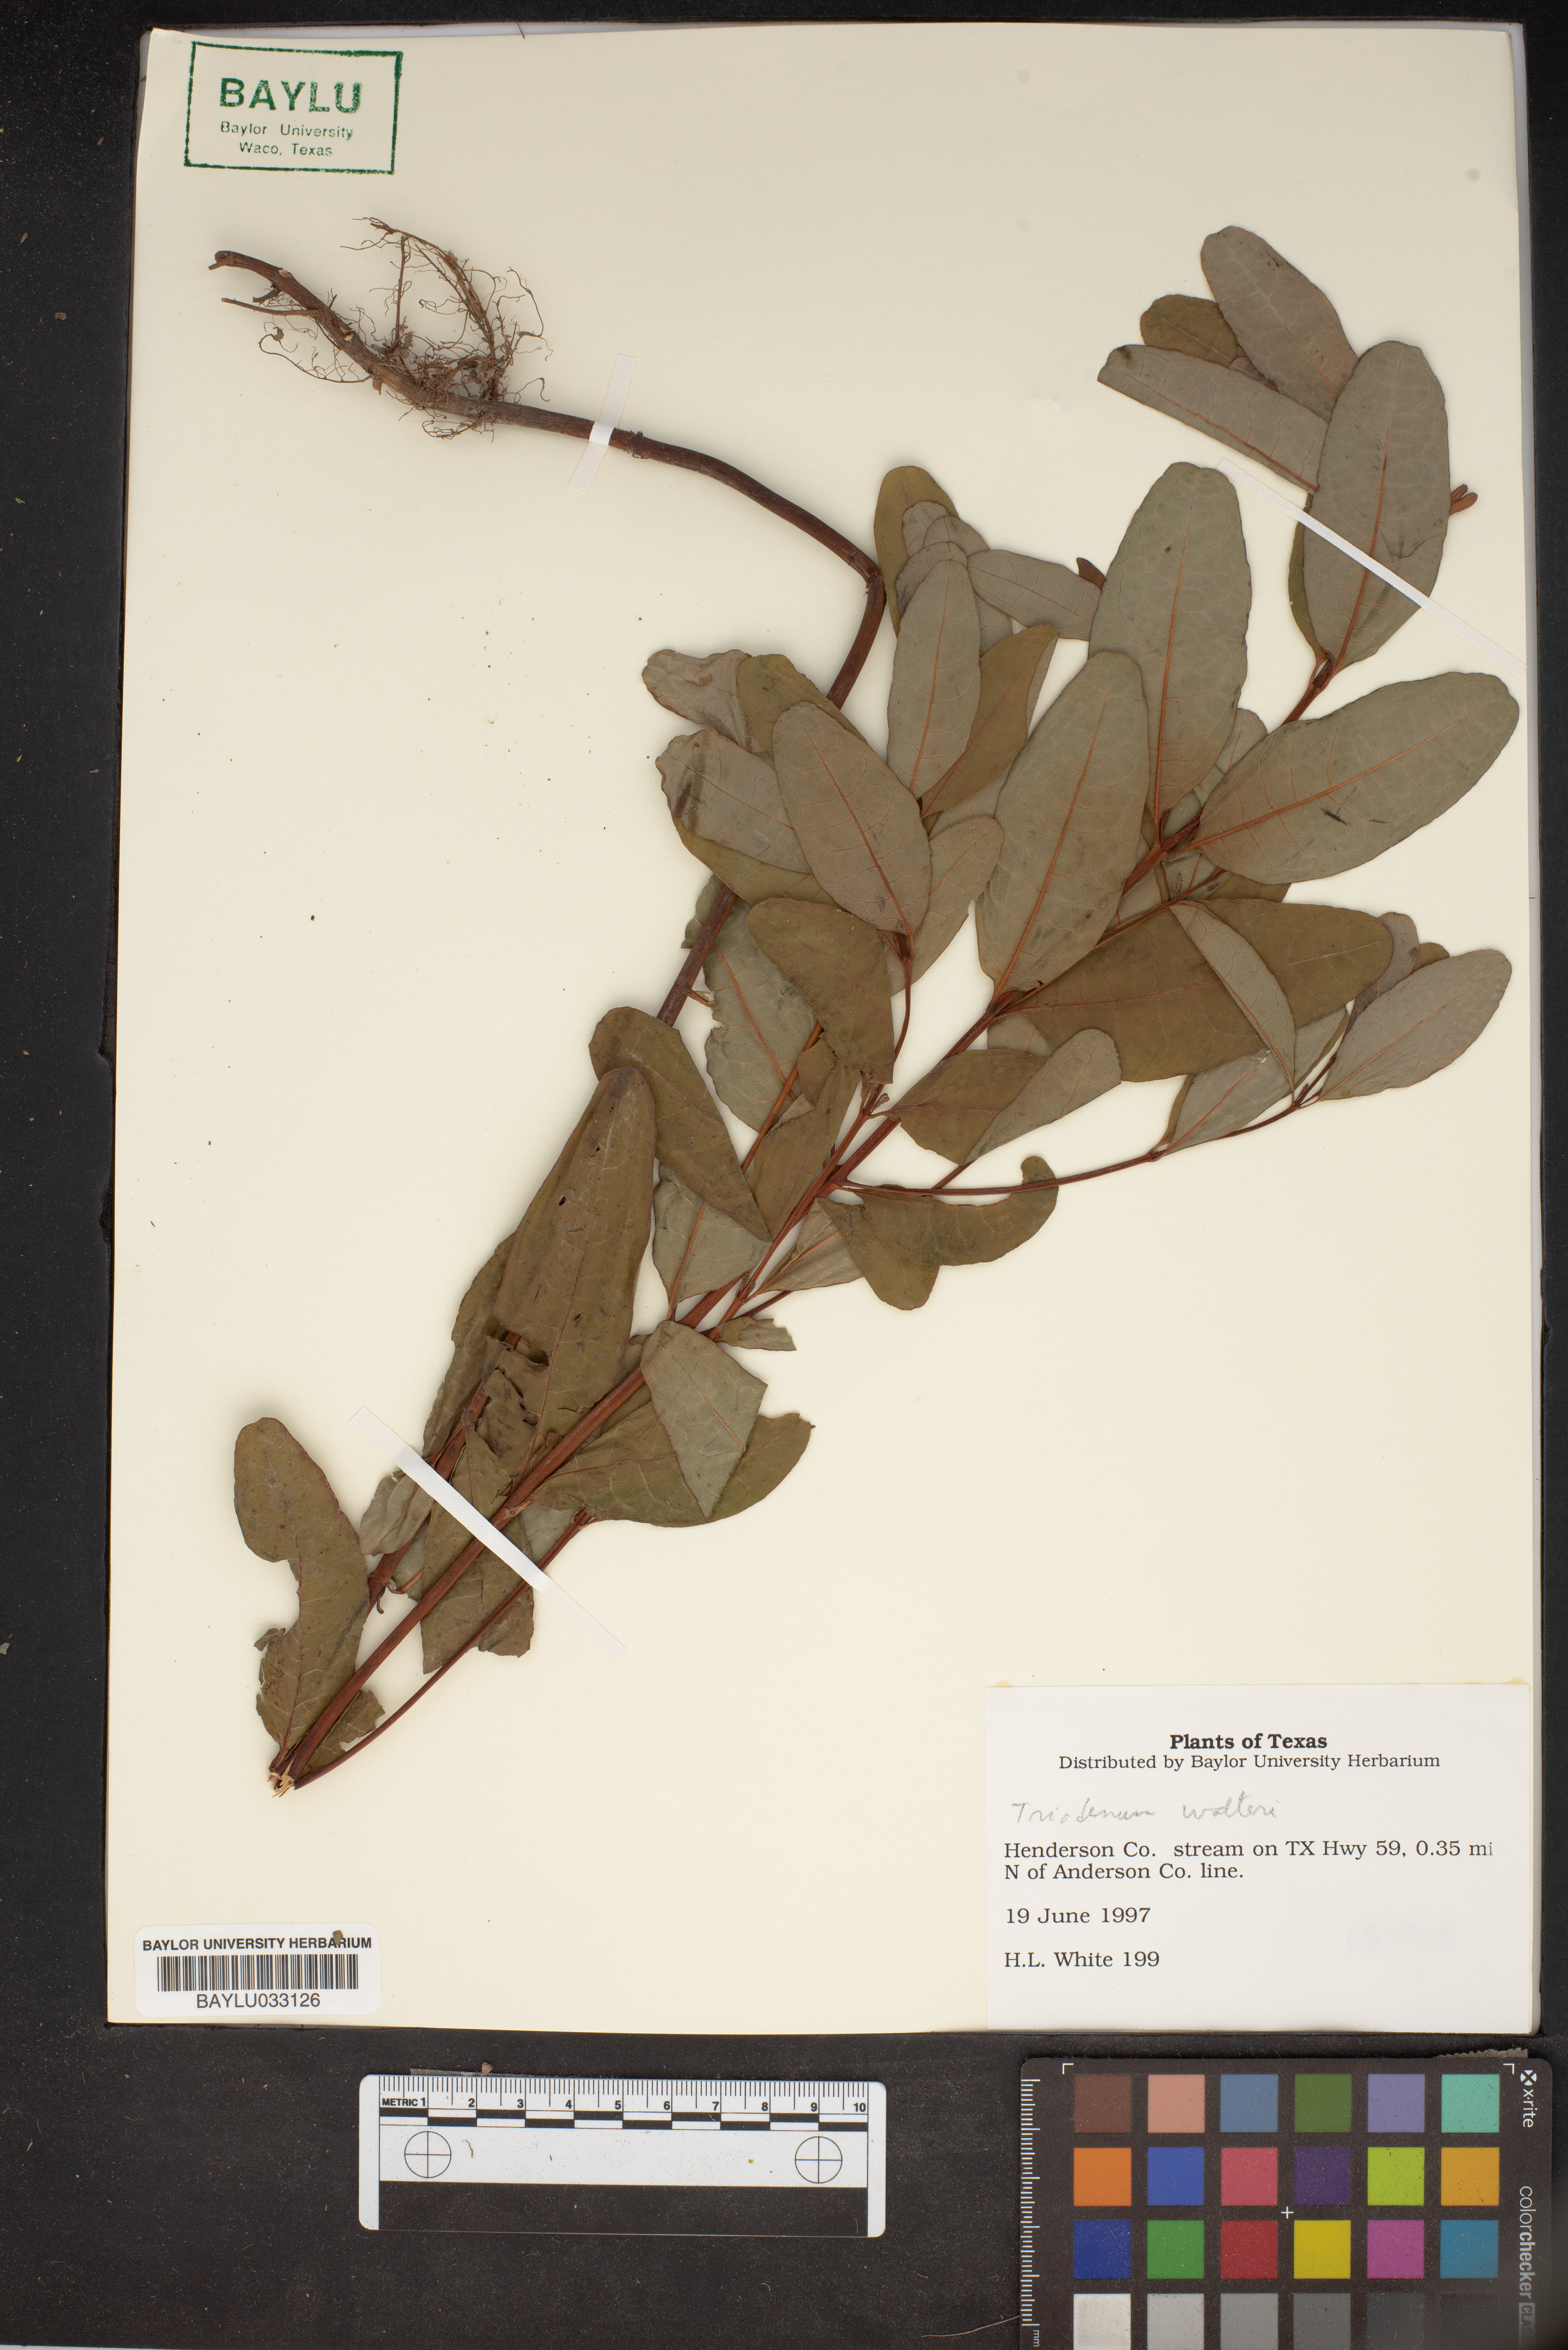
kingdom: Plantae
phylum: Tracheophyta
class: Magnoliopsida
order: Malpighiales
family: Hypericaceae
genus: Triadenum
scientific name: Triadenum walteri
